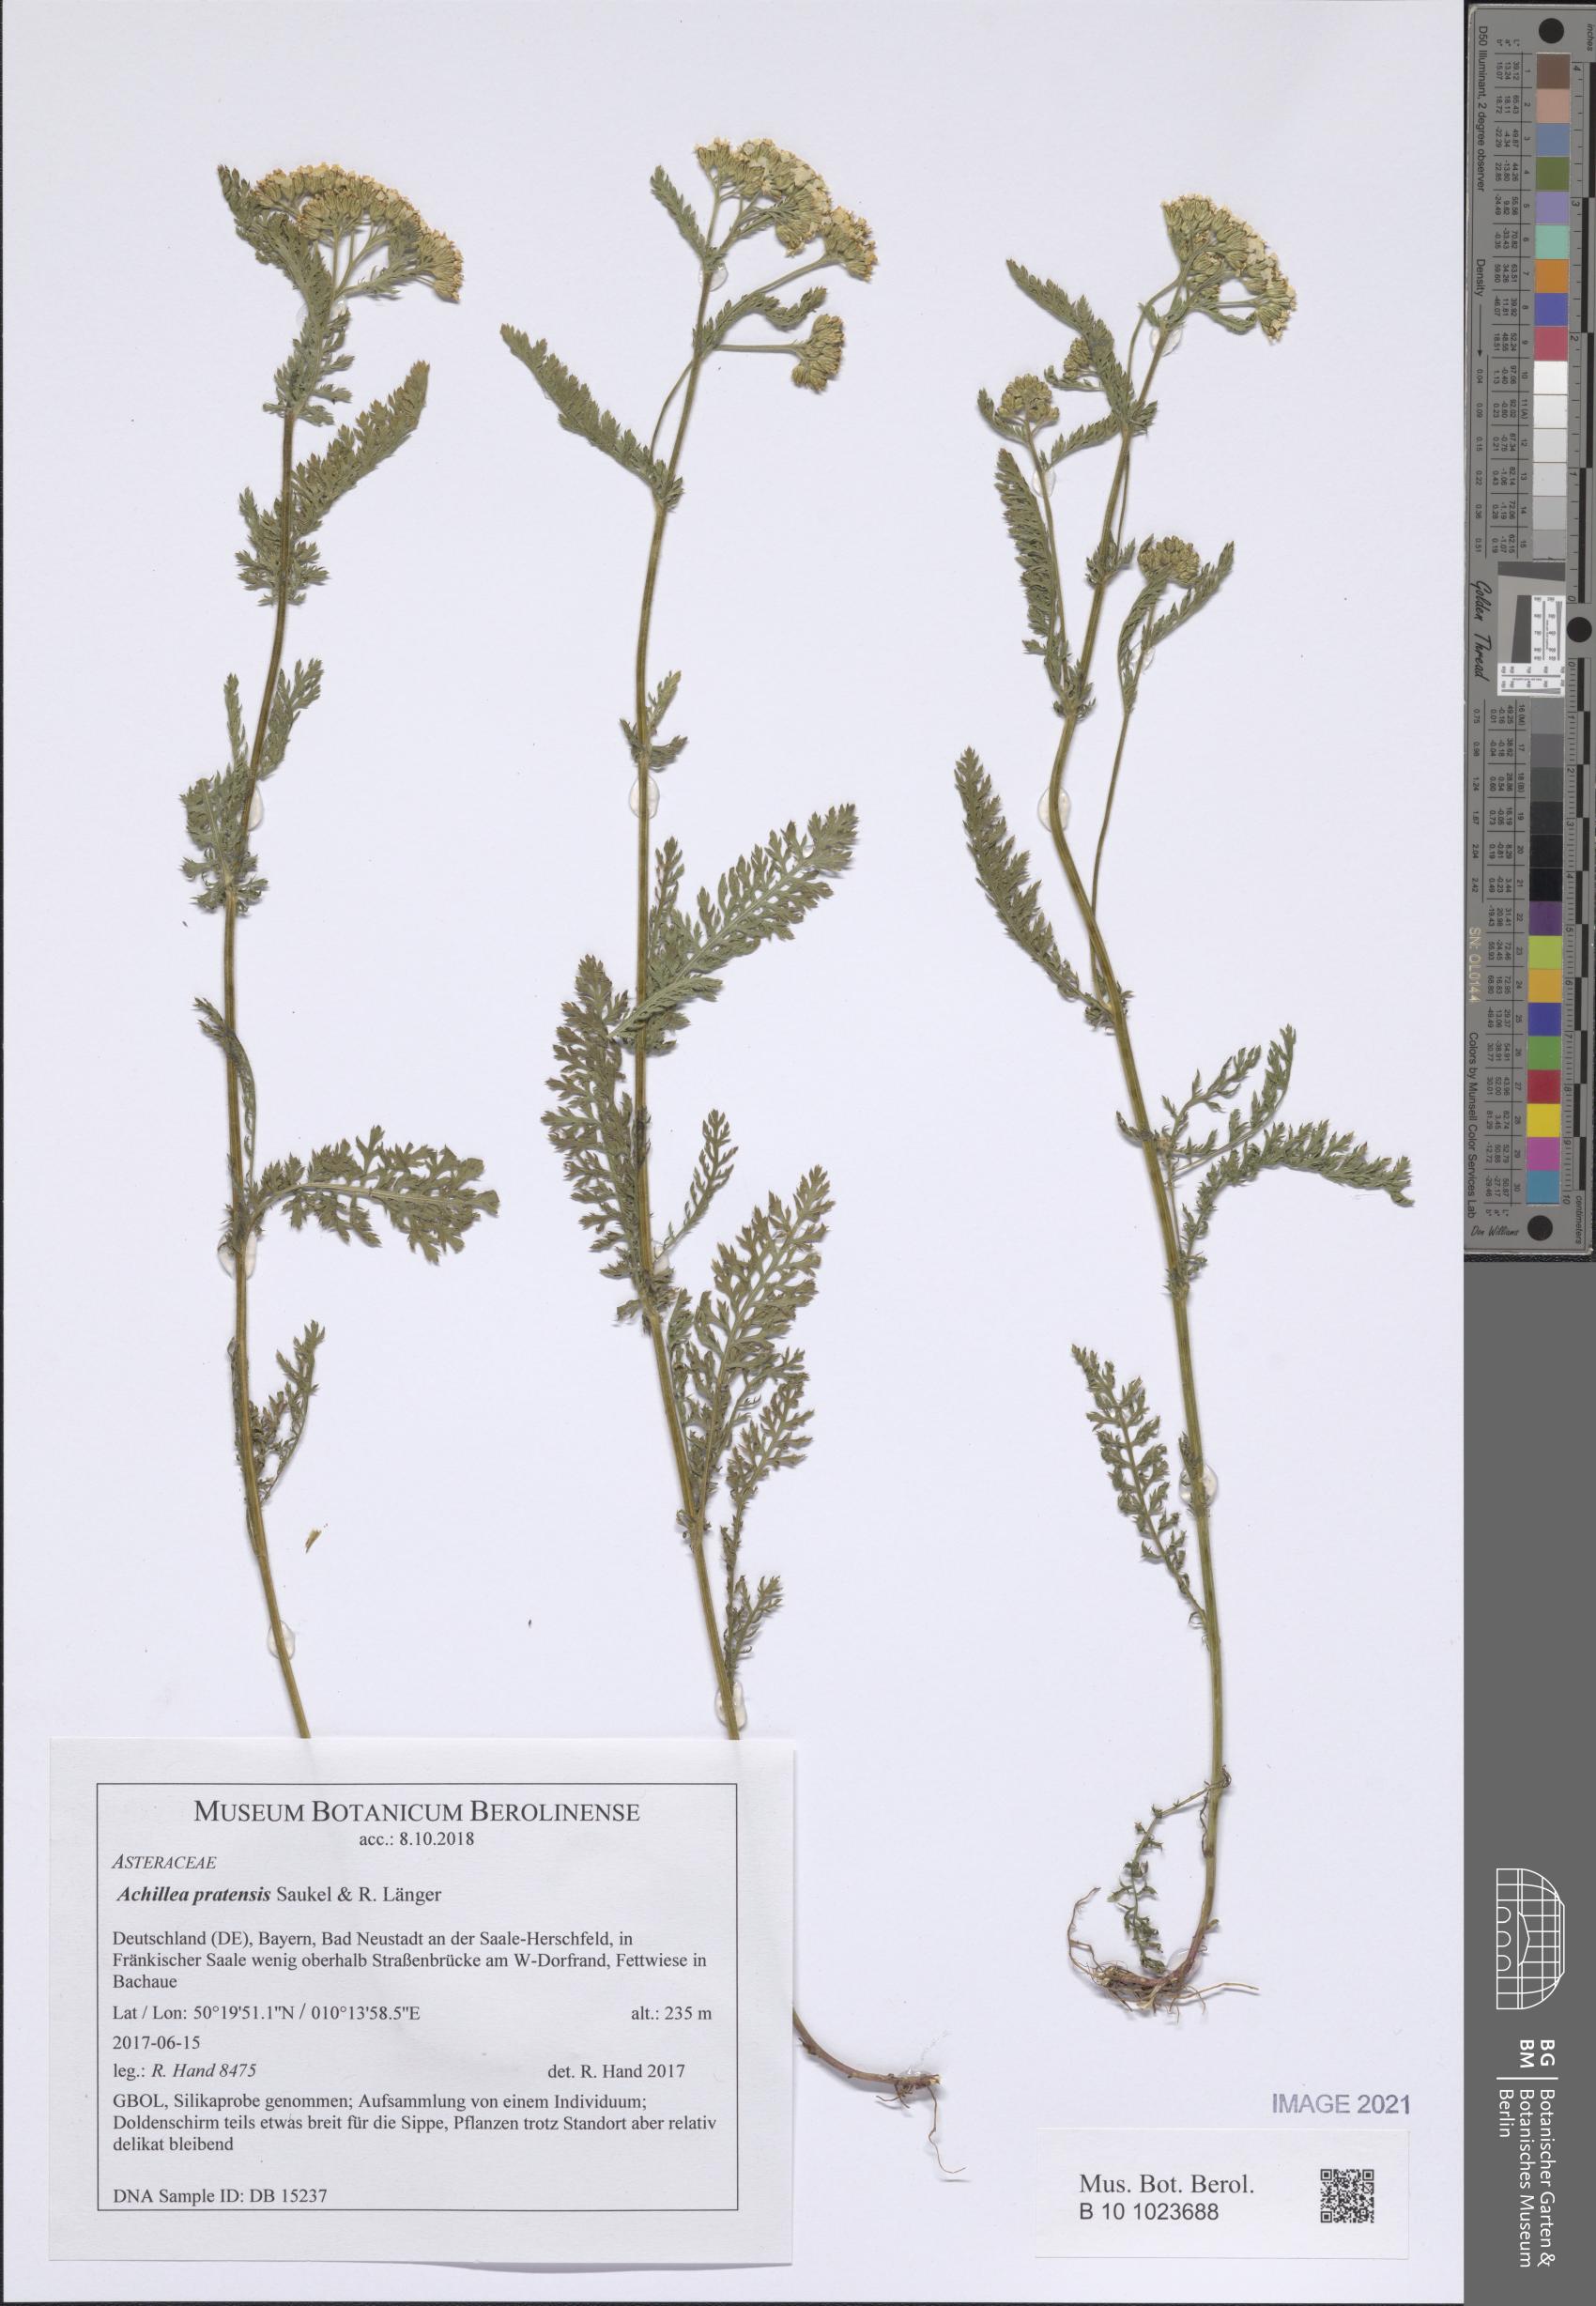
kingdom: Plantae
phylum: Tracheophyta
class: Magnoliopsida
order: Asterales
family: Asteraceae
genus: Achillea
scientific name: Achillea pratensis
